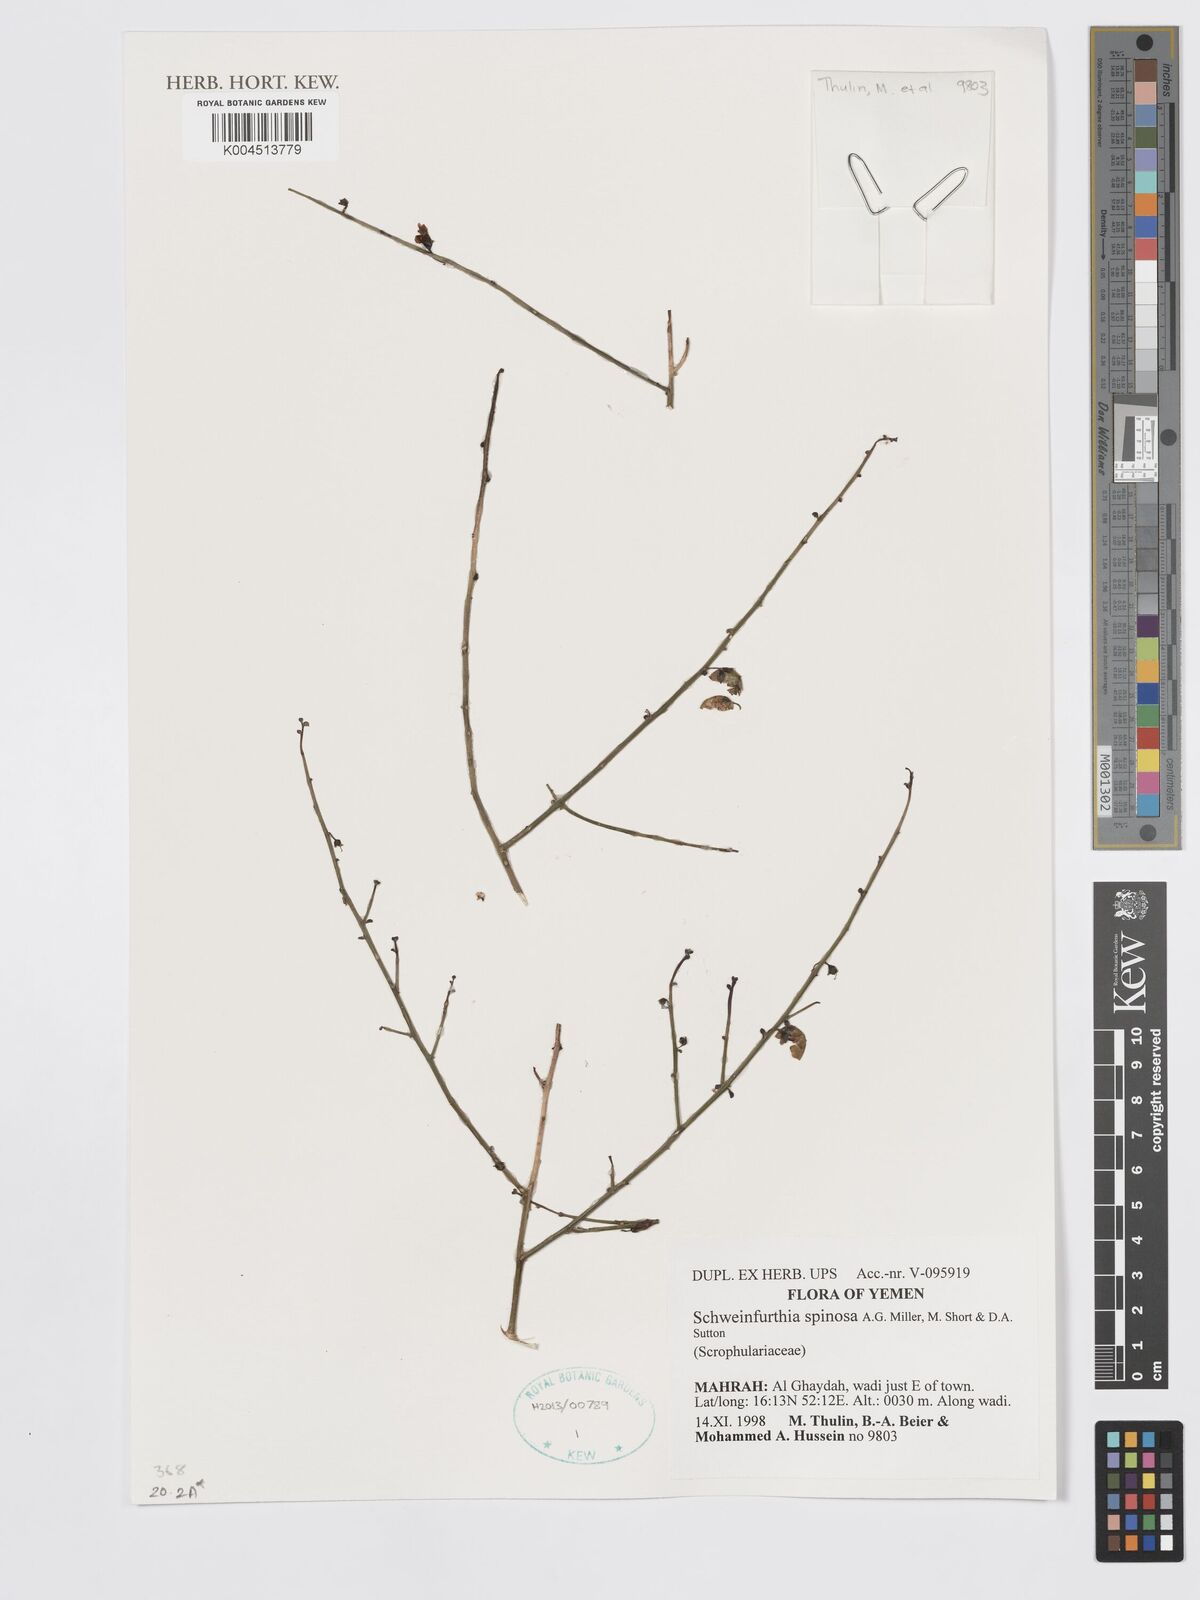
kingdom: Plantae
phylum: Tracheophyta
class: Magnoliopsida
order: Lamiales
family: Plantaginaceae
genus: Schweinfurthia
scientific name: Schweinfurthia spinosa
